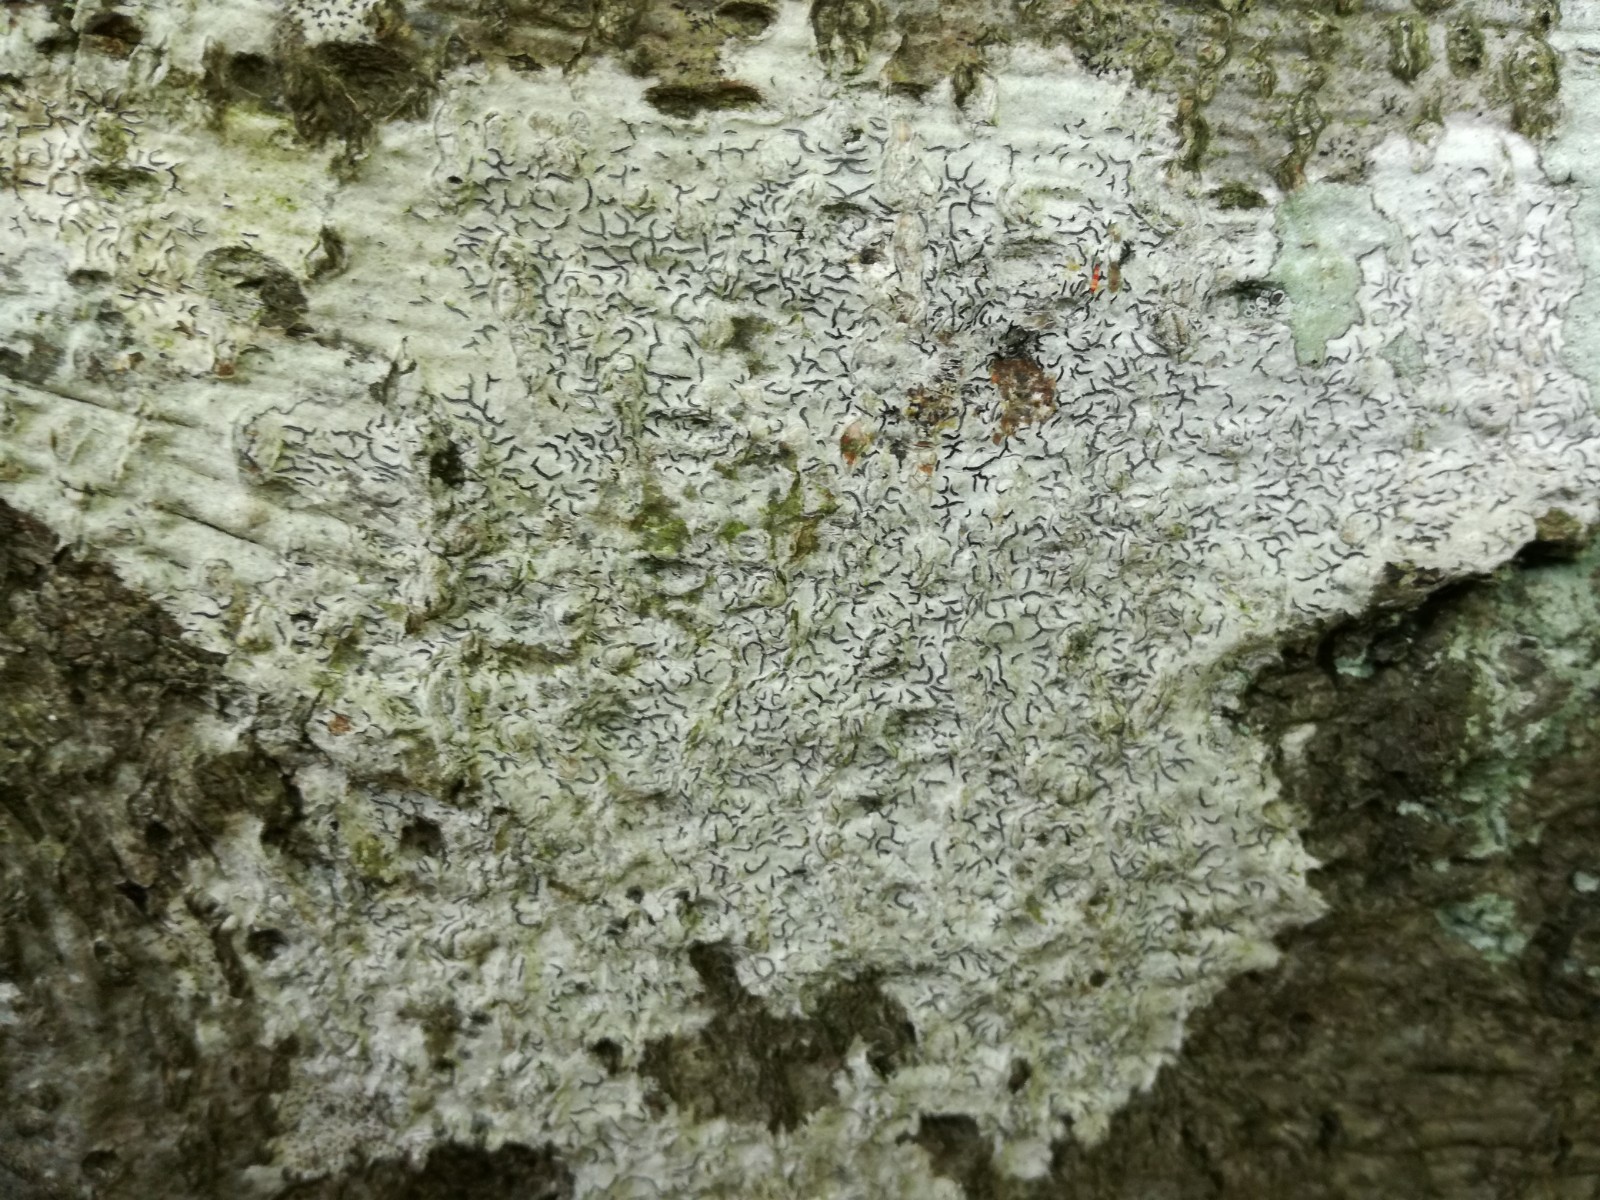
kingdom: Fungi
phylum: Ascomycota
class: Lecanoromycetes
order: Ostropales
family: Graphidaceae
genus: Graphis
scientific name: Graphis scripta
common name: almindelig skriftlav
